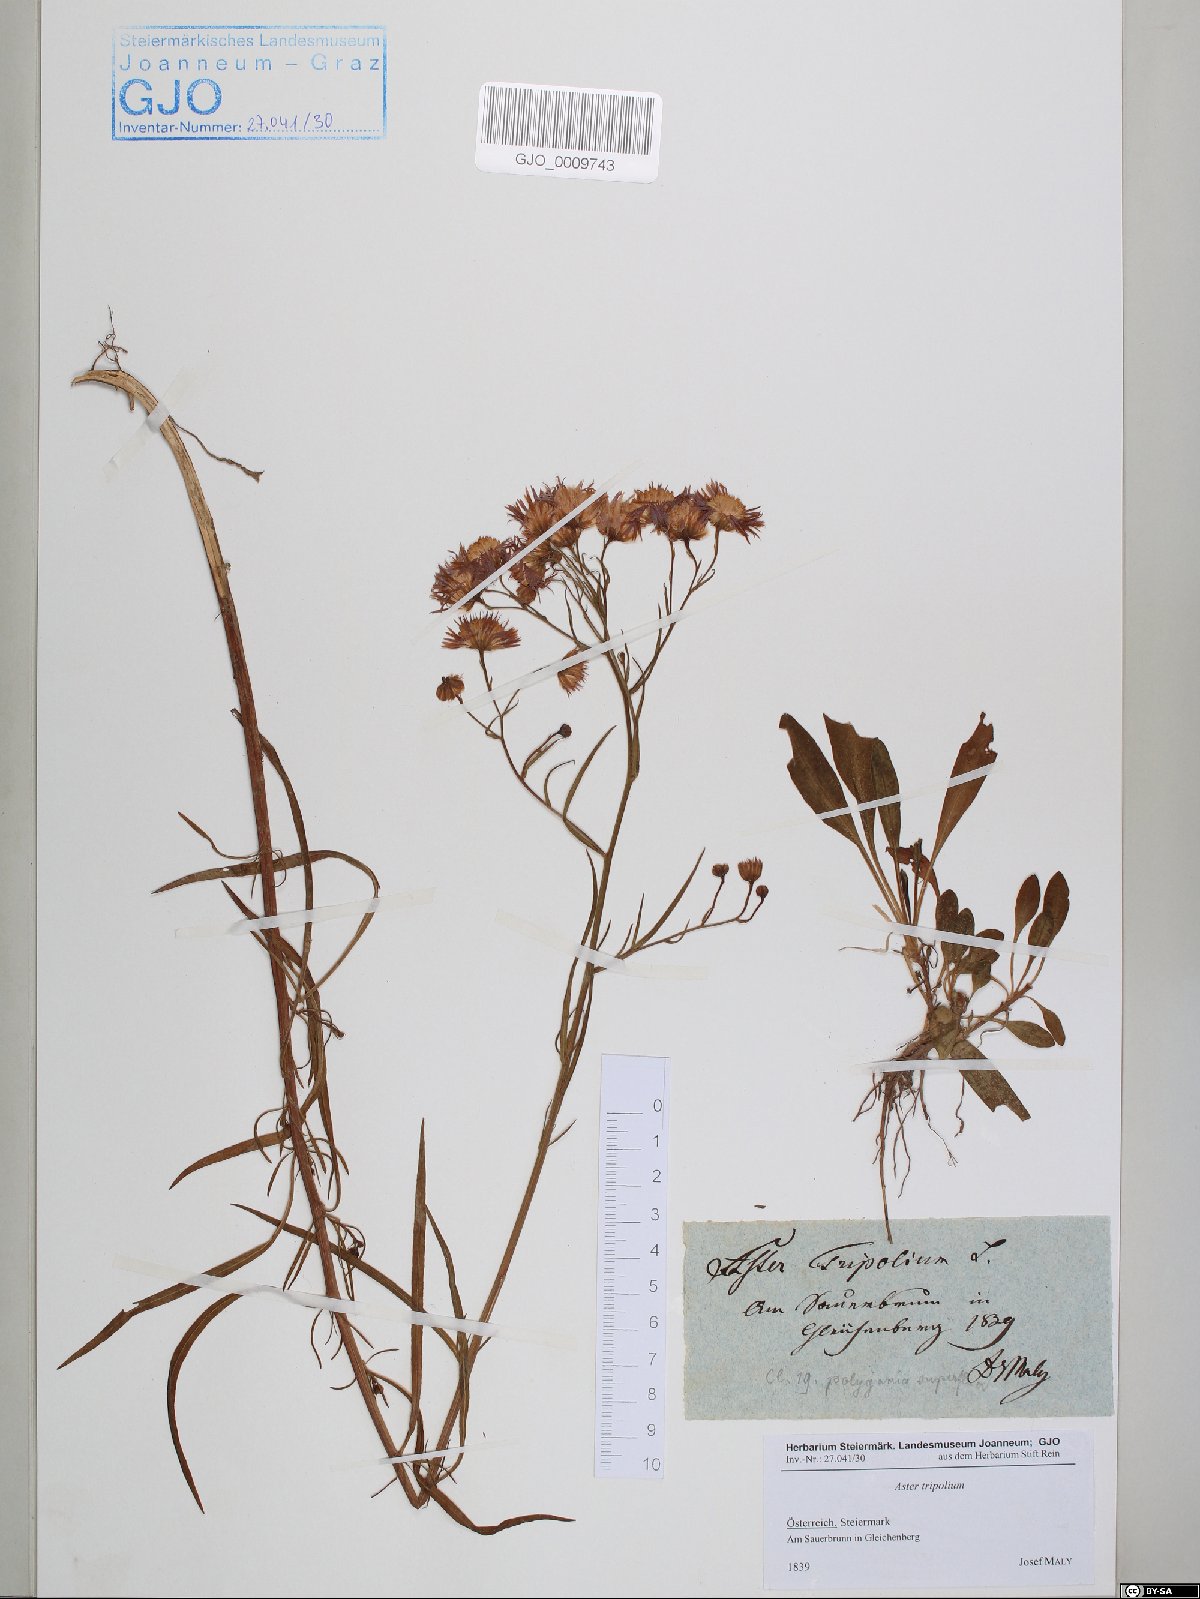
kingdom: Plantae
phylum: Tracheophyta
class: Magnoliopsida
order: Asterales
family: Asteraceae
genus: Tripolium
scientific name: Tripolium pannonicum
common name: Sea aster
